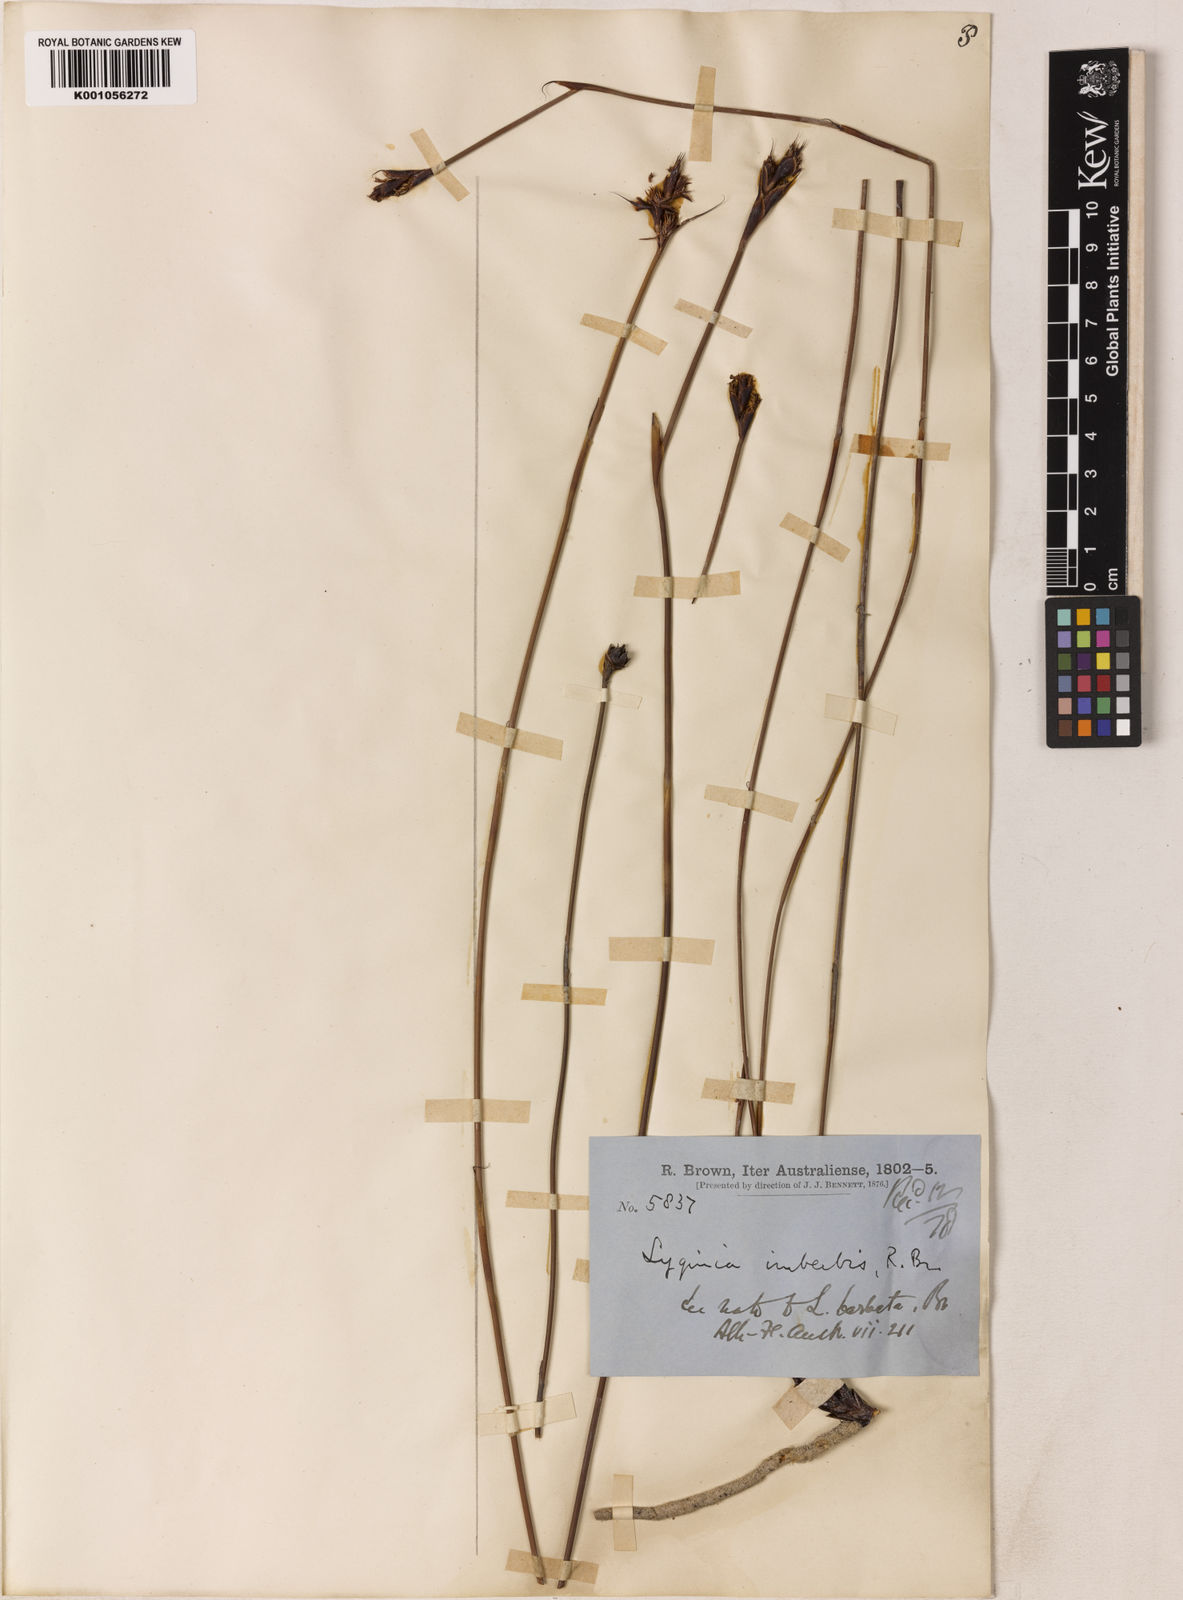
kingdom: Plantae
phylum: Tracheophyta
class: Liliopsida
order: Poales
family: Restionaceae
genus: Lyginia
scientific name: Lyginia imberbis
